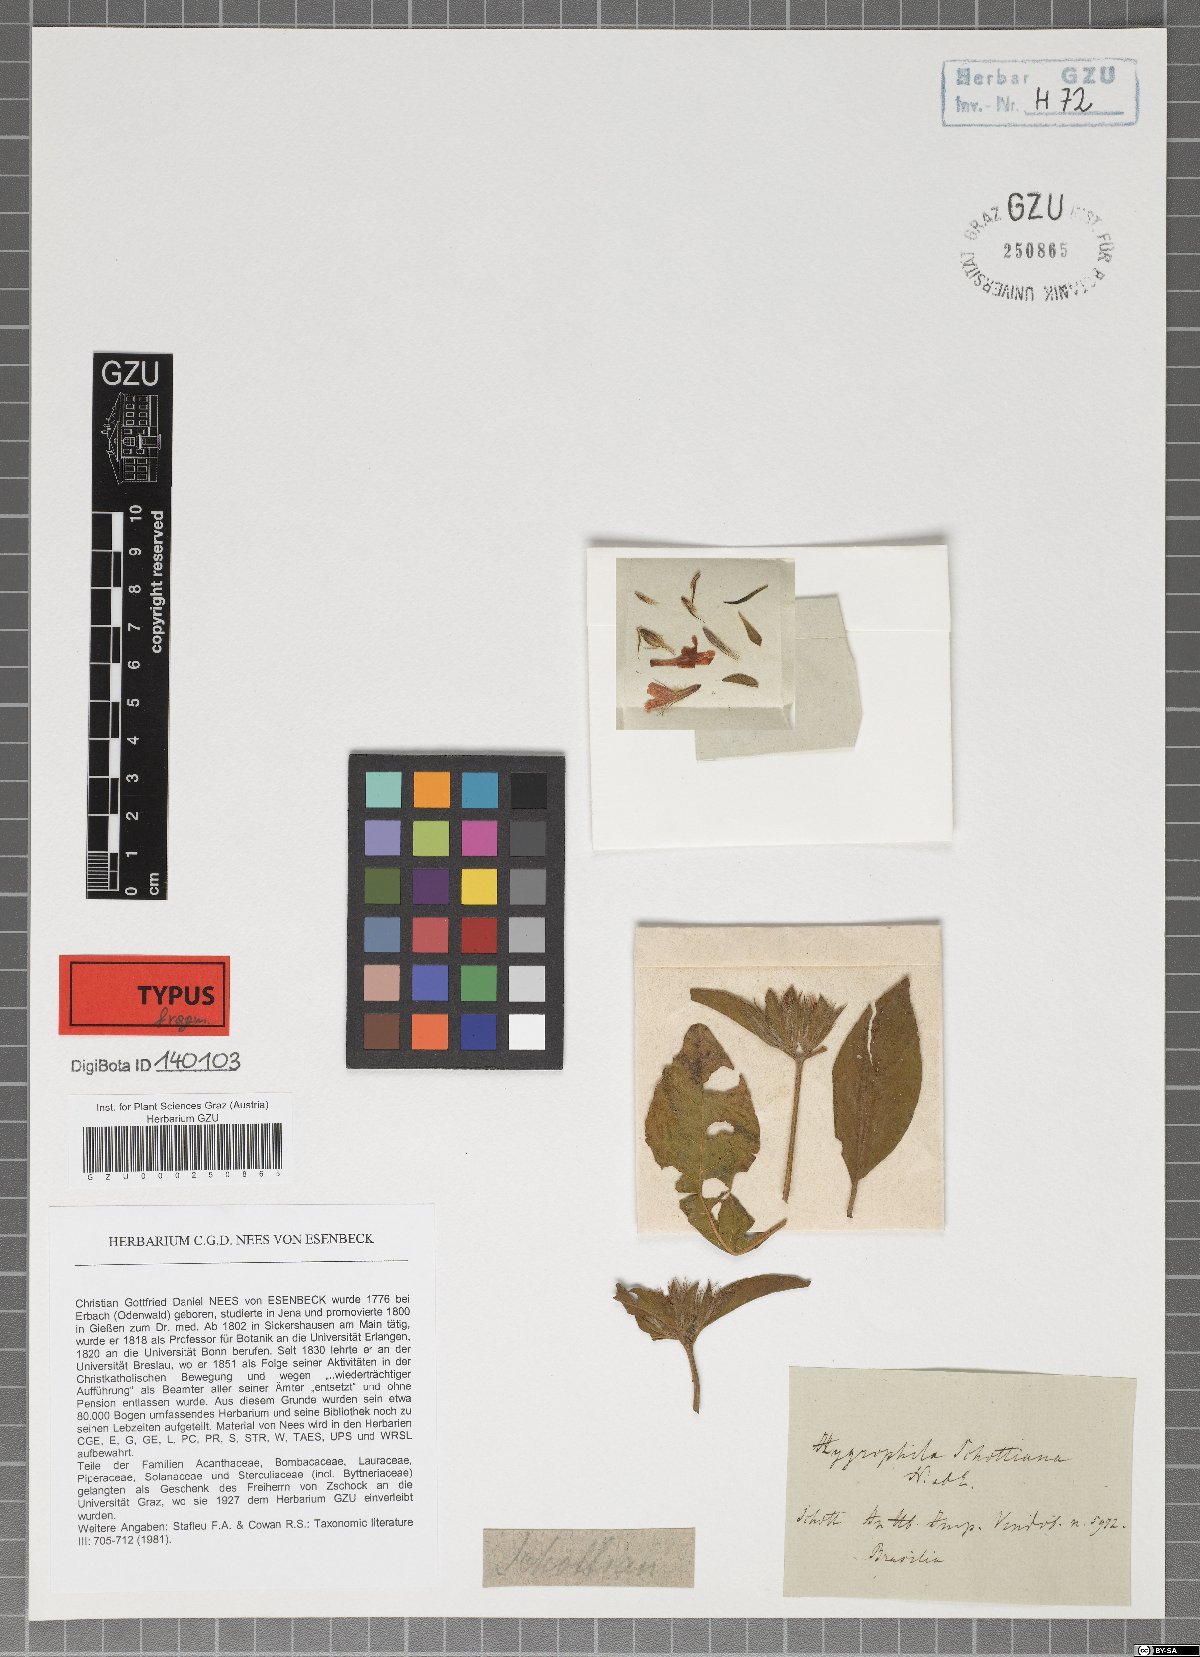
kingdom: Plantae
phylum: Tracheophyta
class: Magnoliopsida
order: Lamiales
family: Acanthaceae
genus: Dyschoriste
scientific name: Dyschoriste schottiana
